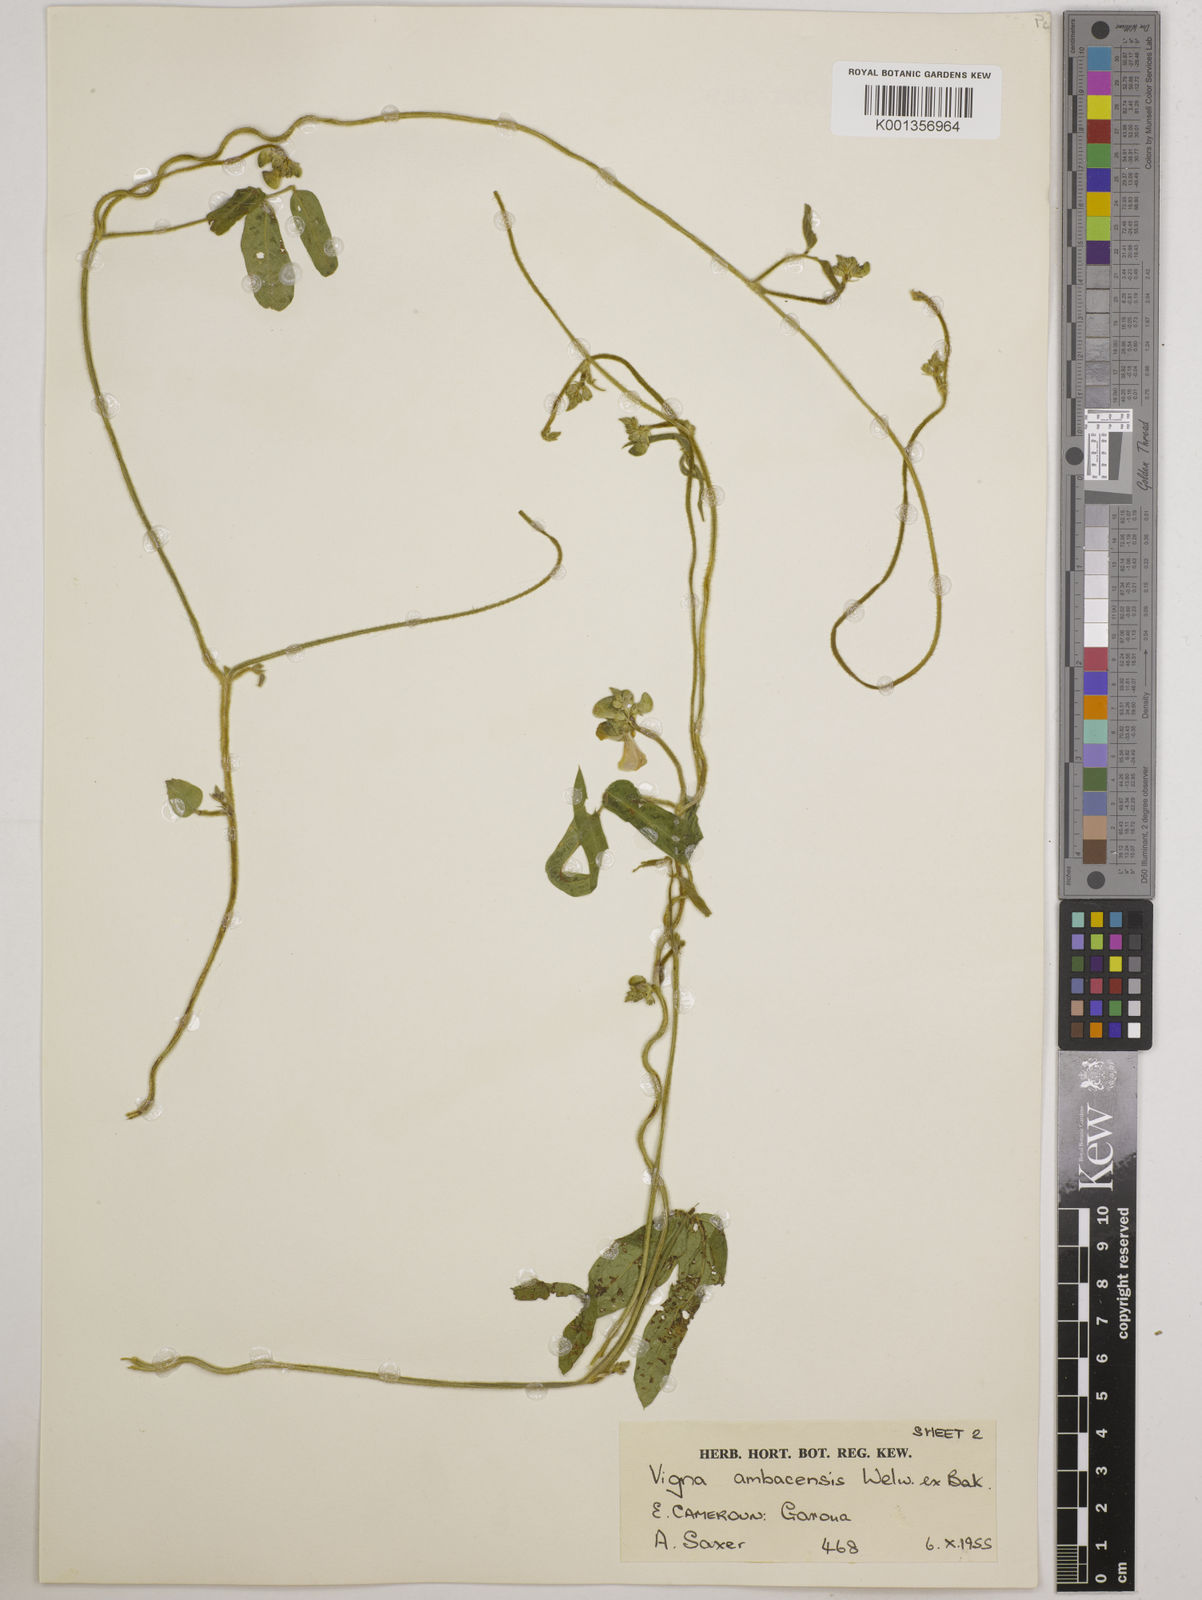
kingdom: Plantae
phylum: Tracheophyta
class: Magnoliopsida
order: Fabales
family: Fabaceae
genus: Vigna
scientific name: Vigna ambacensis
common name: Tsarkiyan zomo
